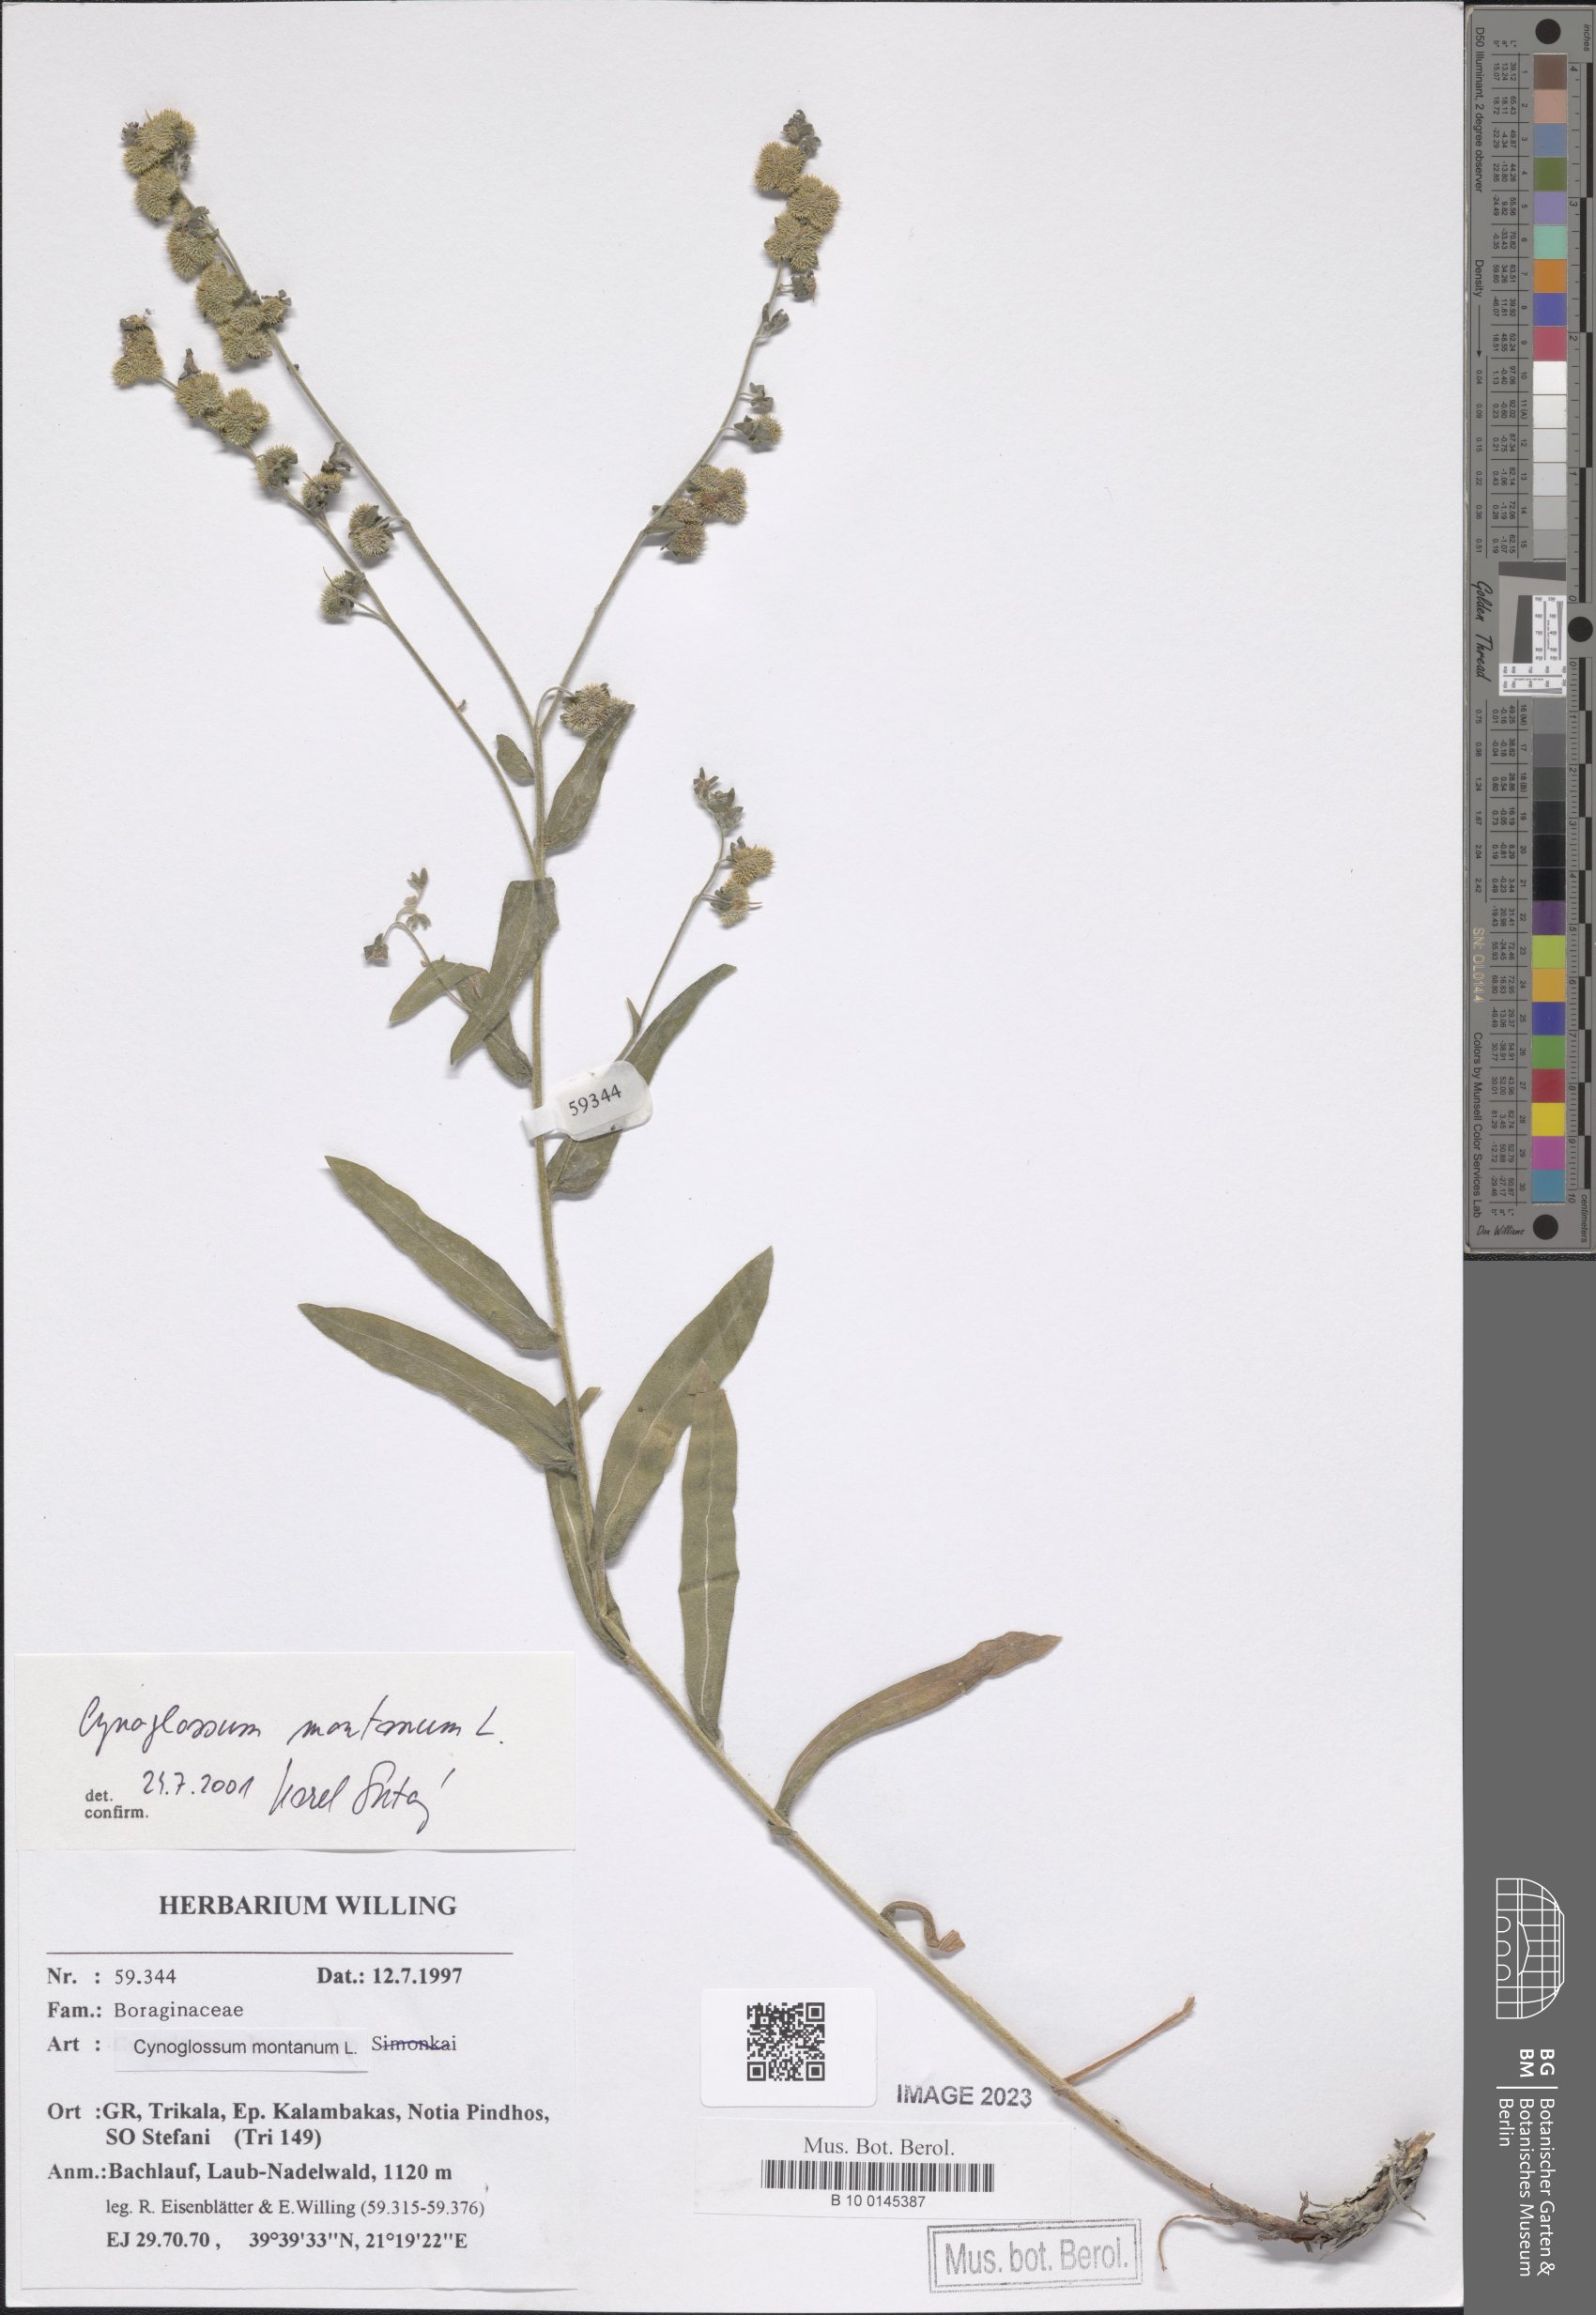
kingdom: Plantae
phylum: Tracheophyta
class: Magnoliopsida
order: Boraginales
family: Boraginaceae
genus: Cynoglossum
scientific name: Cynoglossum montanum
